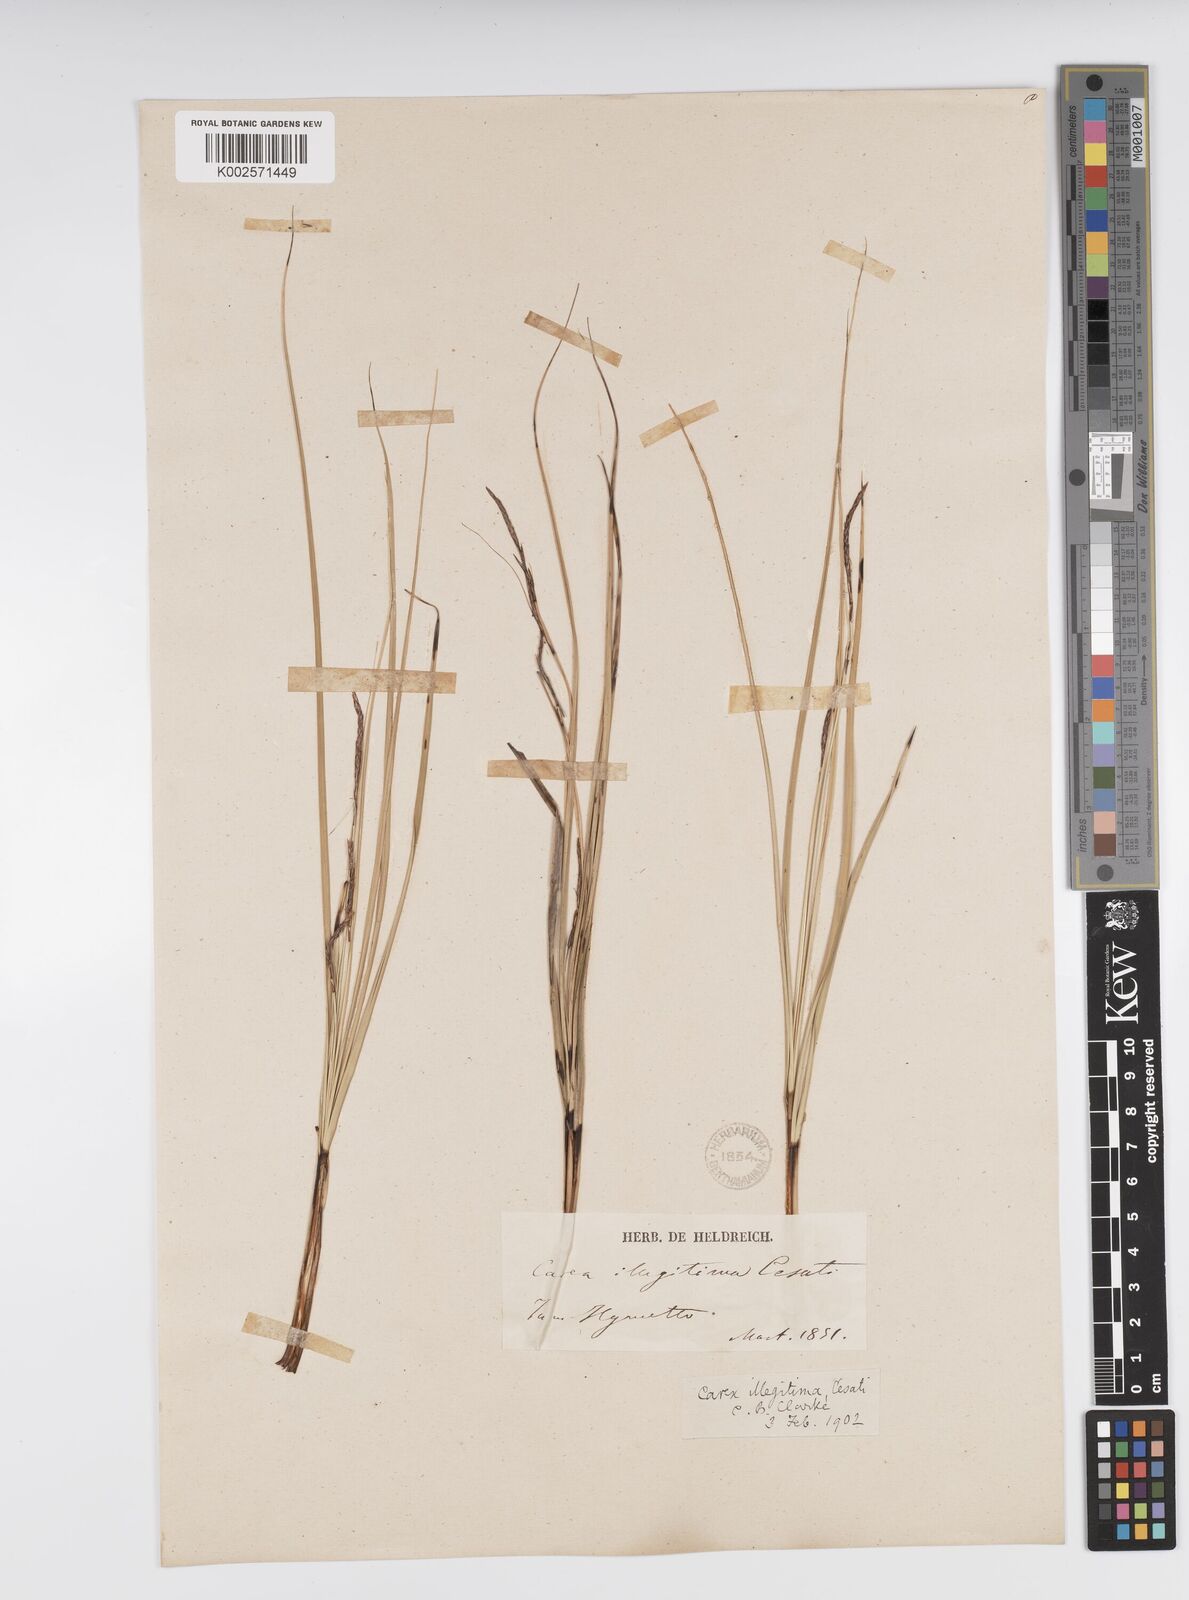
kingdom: Plantae
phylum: Tracheophyta
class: Liliopsida
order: Poales
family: Cyperaceae
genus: Carex
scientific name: Carex illegitima
